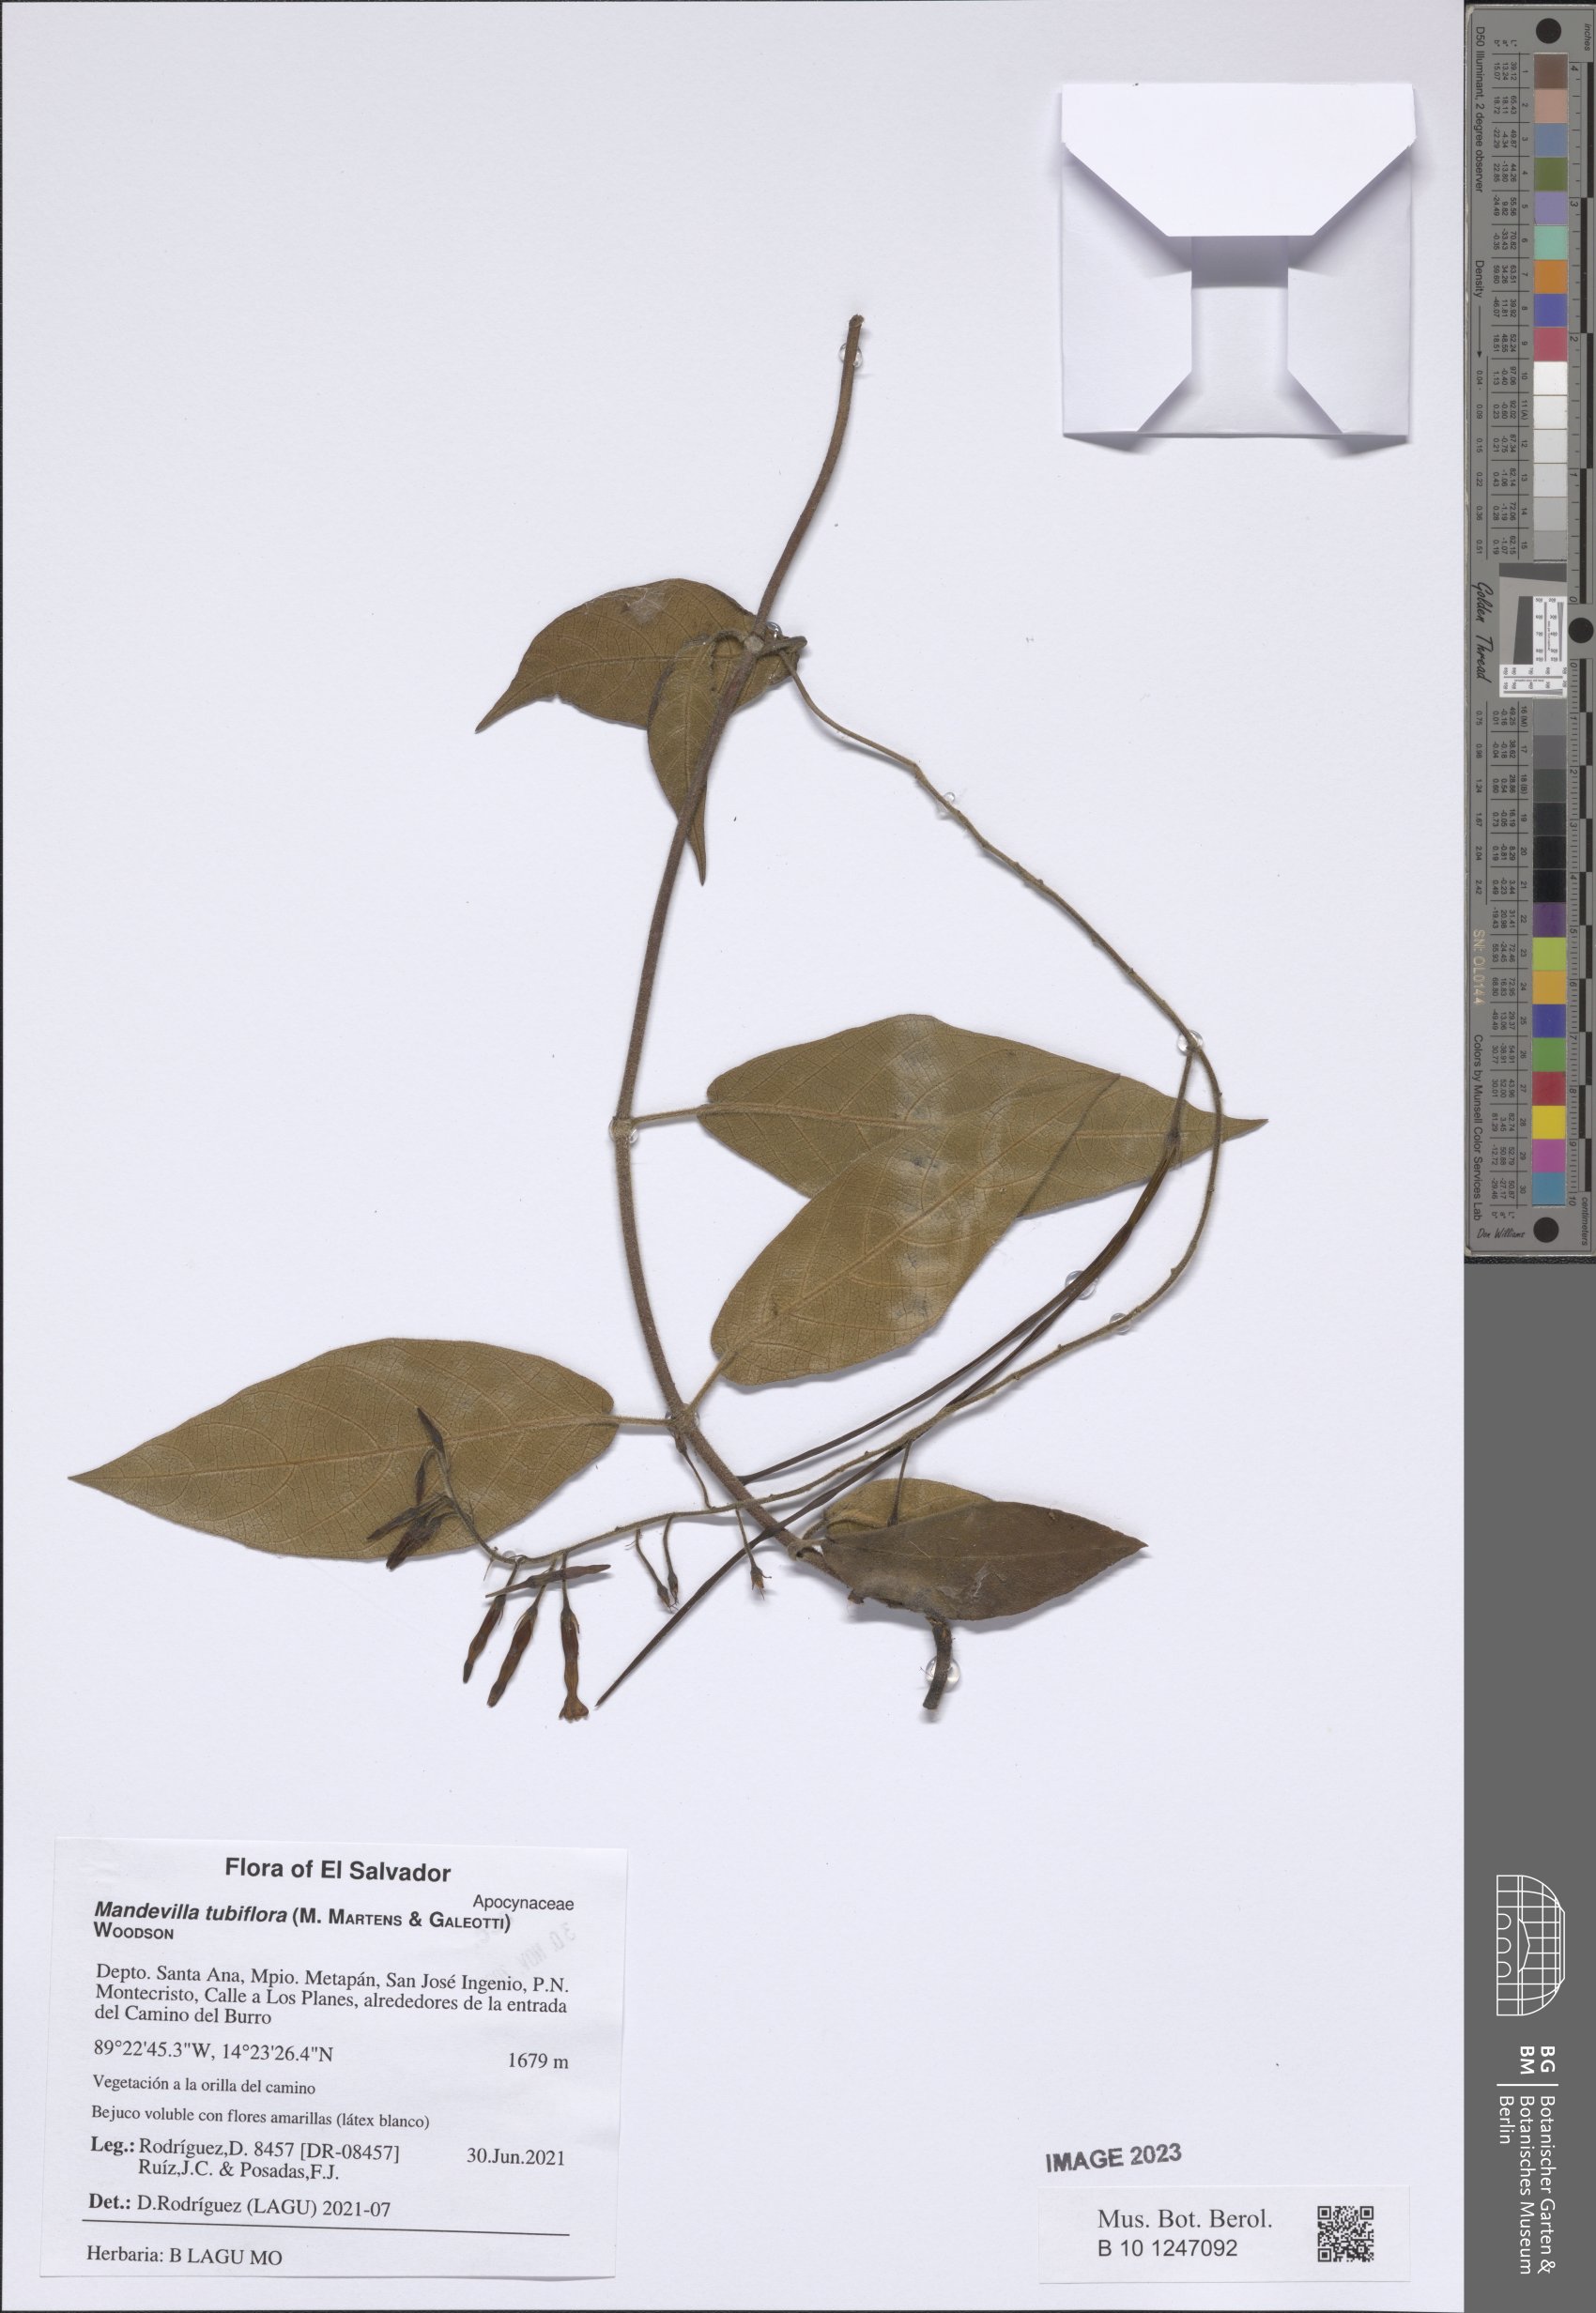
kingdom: Plantae
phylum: Tracheophyta
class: Magnoliopsida
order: Gentianales
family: Apocynaceae
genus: Mandevilla
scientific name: Mandevilla tubiflora
